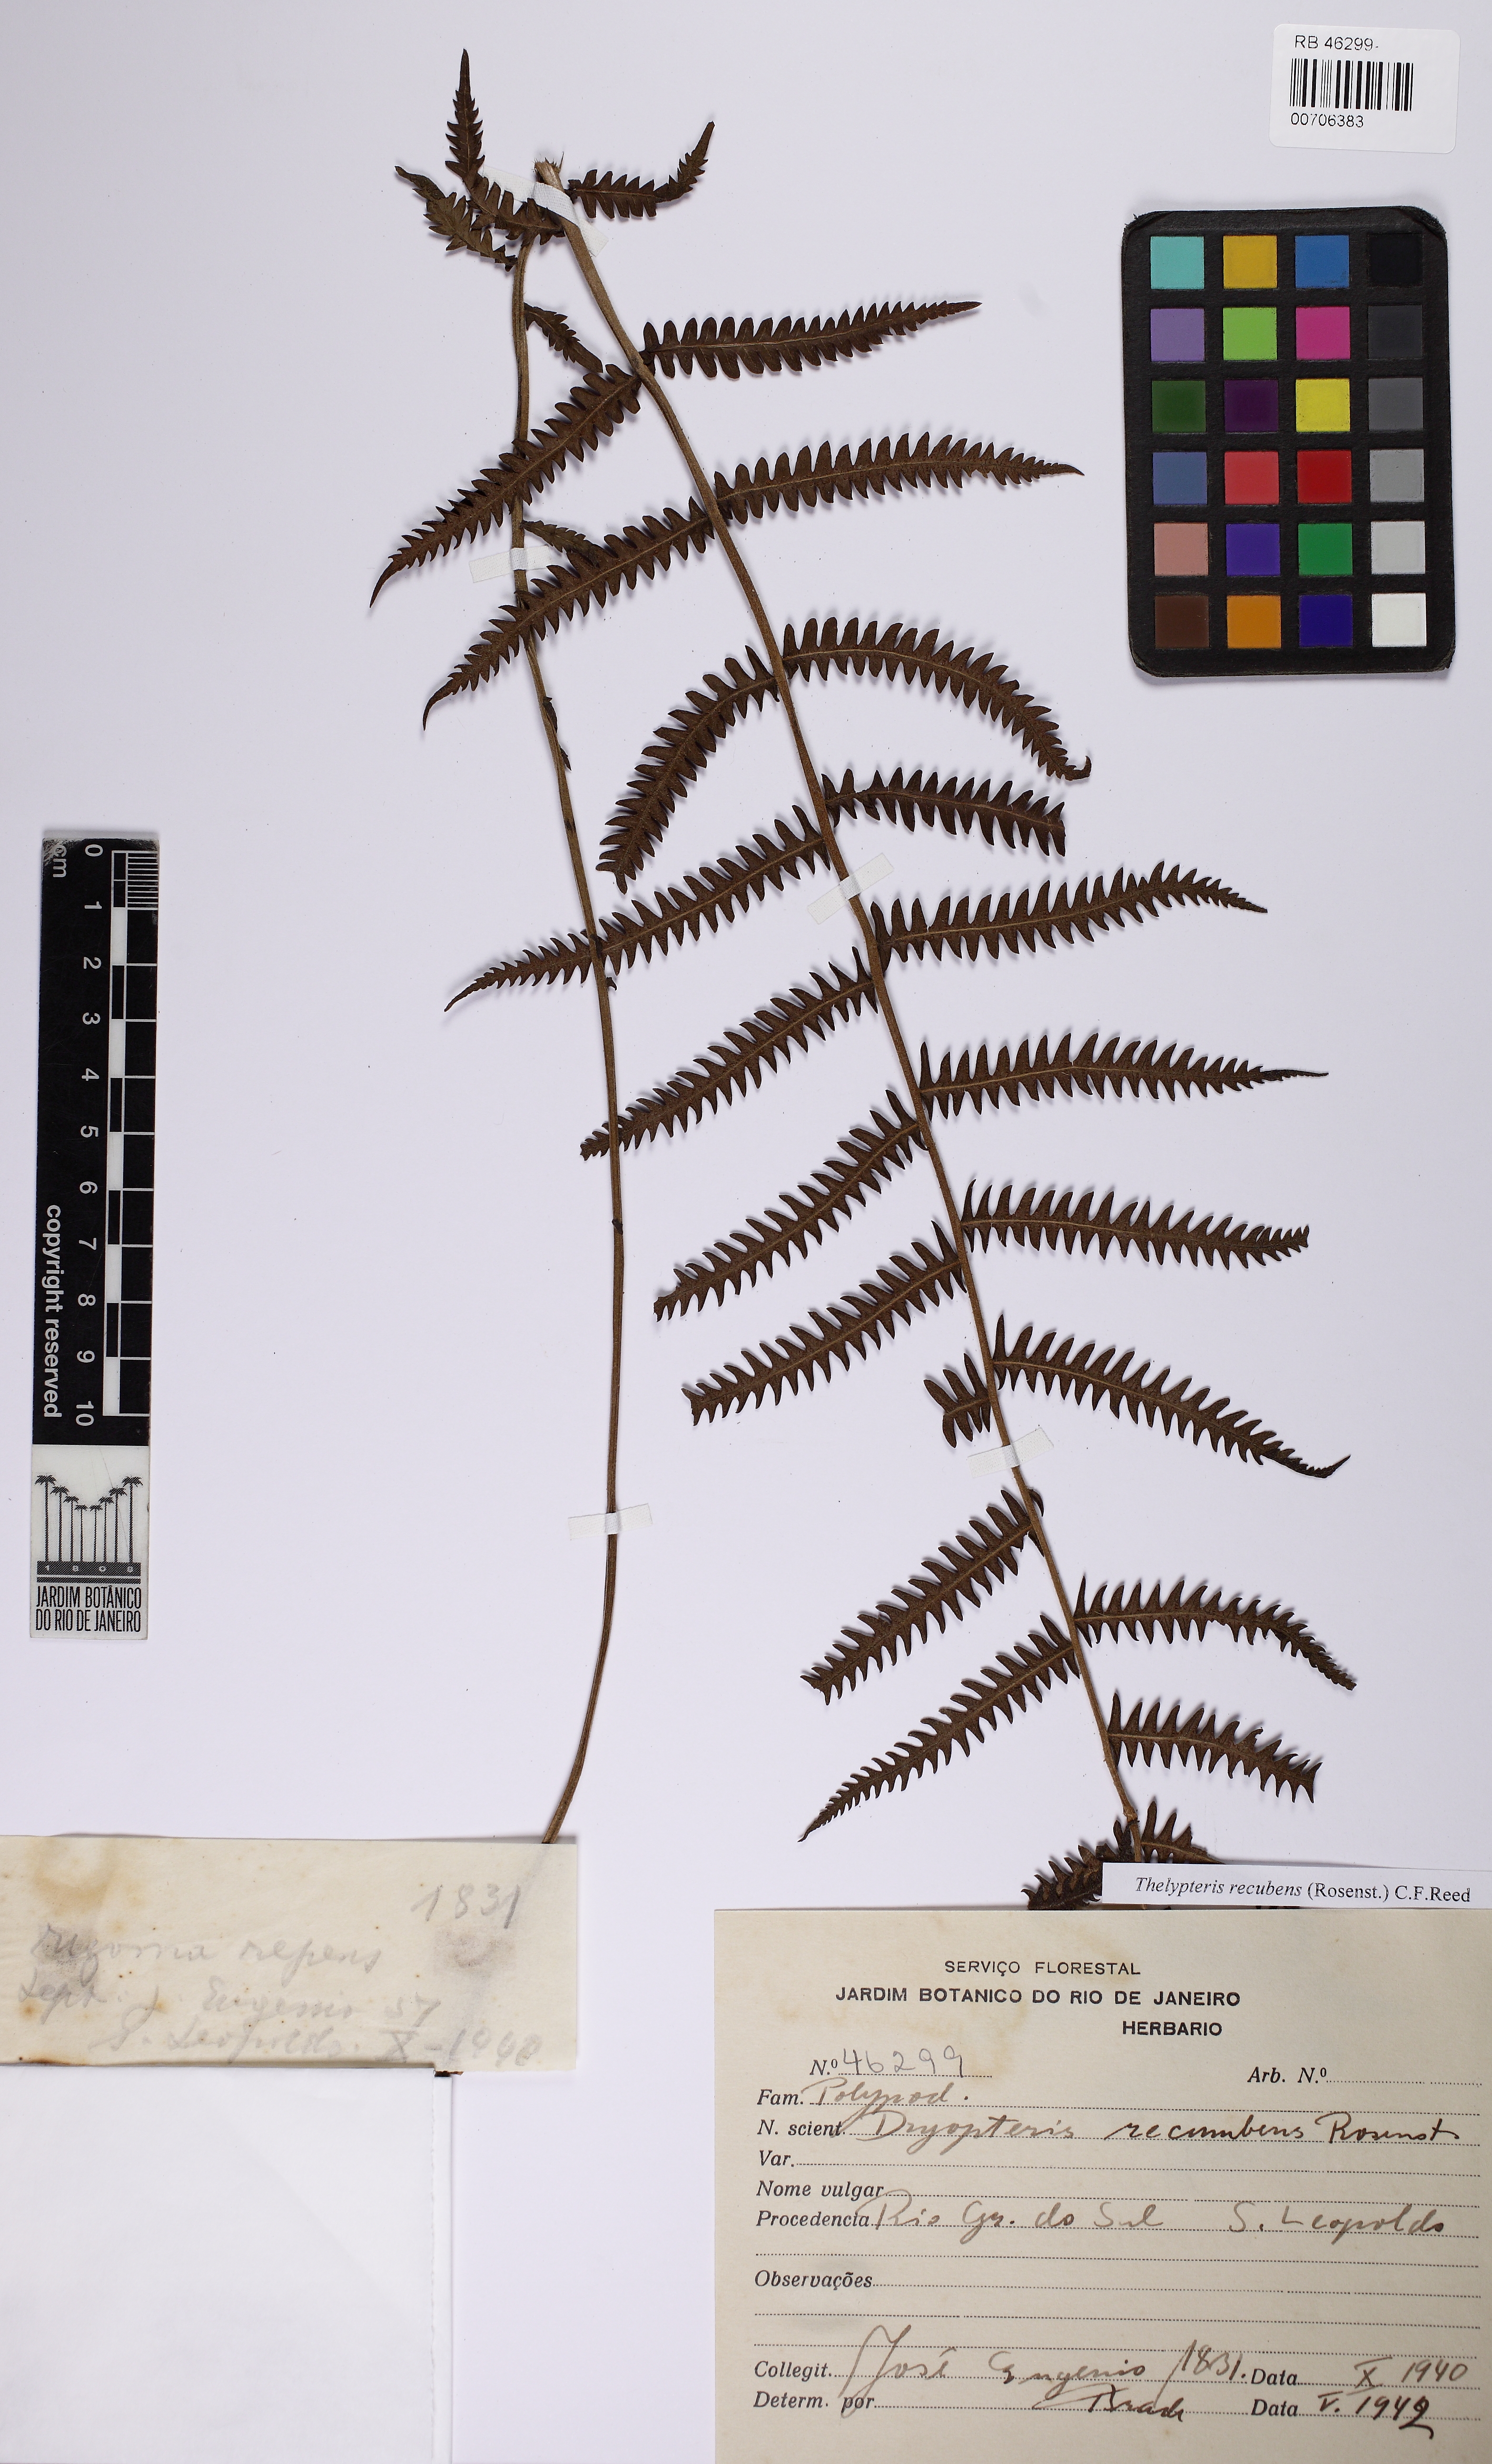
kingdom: Plantae
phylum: Tracheophyta
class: Polypodiopsida
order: Polypodiales
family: Thelypteridaceae
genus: Amauropelta
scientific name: Amauropelta recumbens
